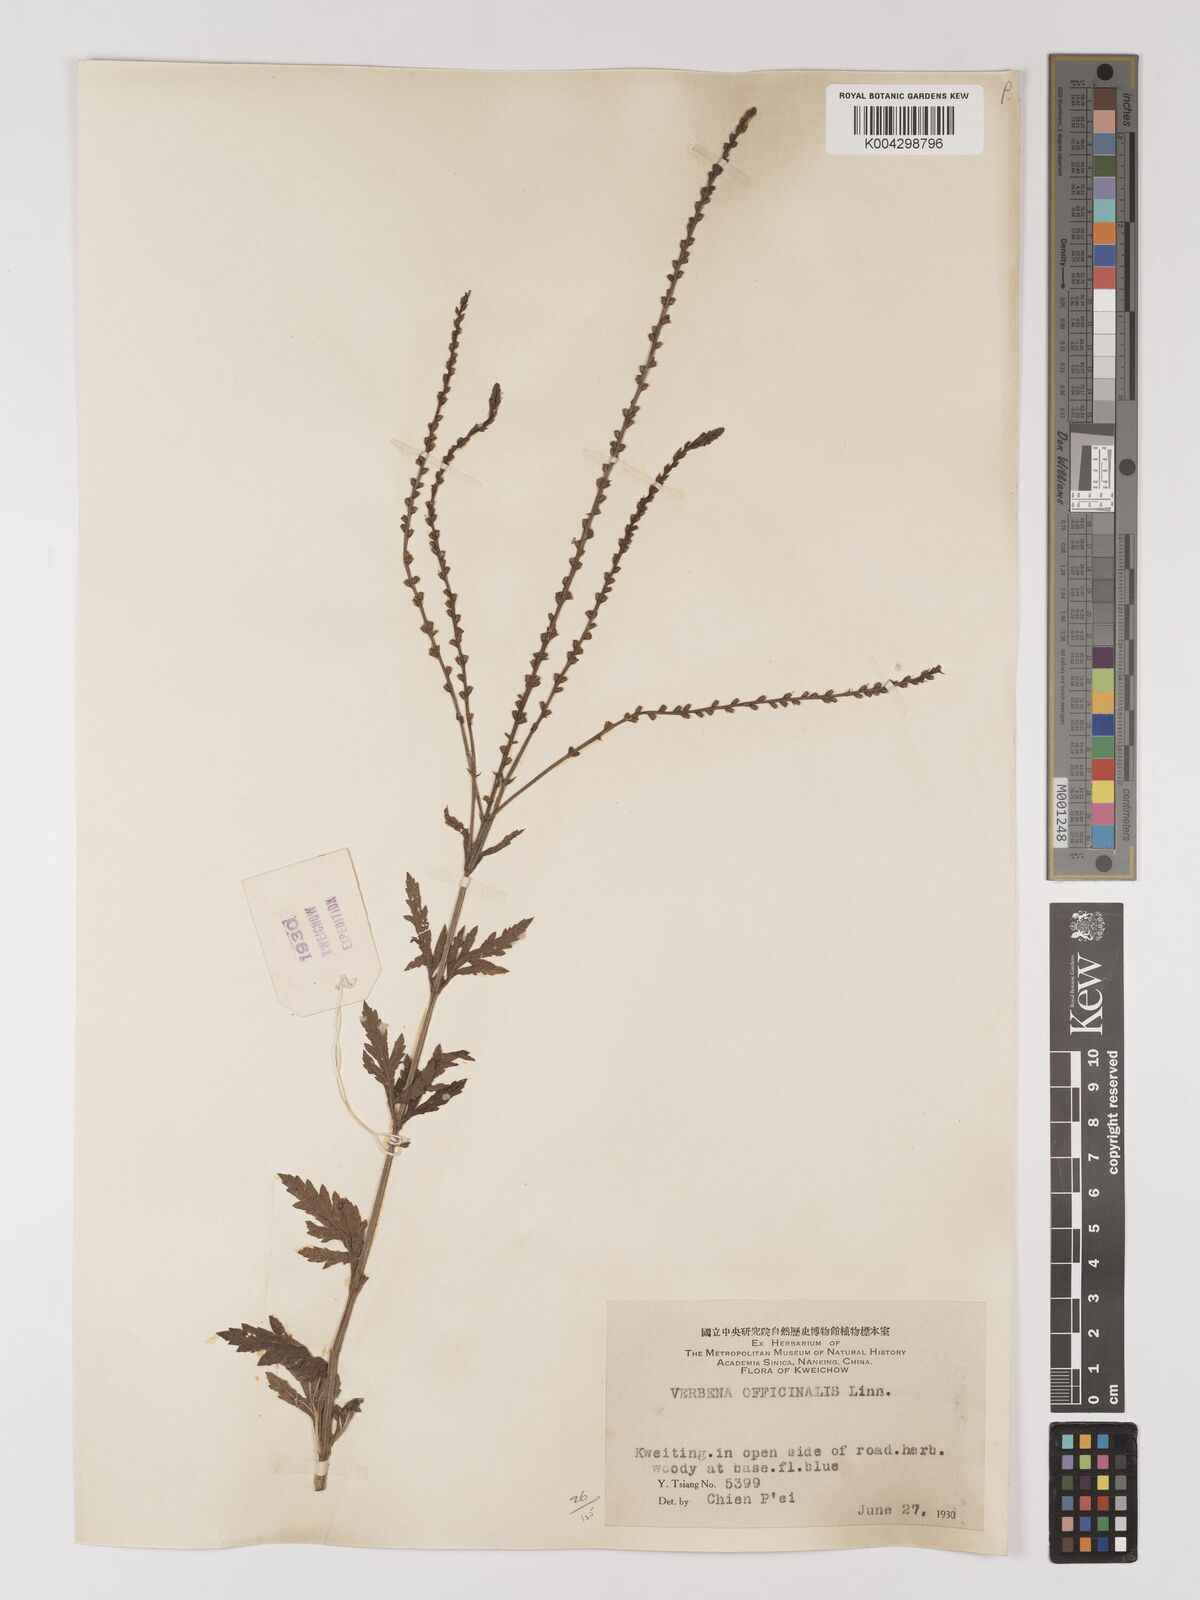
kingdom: Plantae
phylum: Tracheophyta
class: Magnoliopsida
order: Lamiales
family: Verbenaceae
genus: Verbena
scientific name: Verbena officinalis
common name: Vervain
